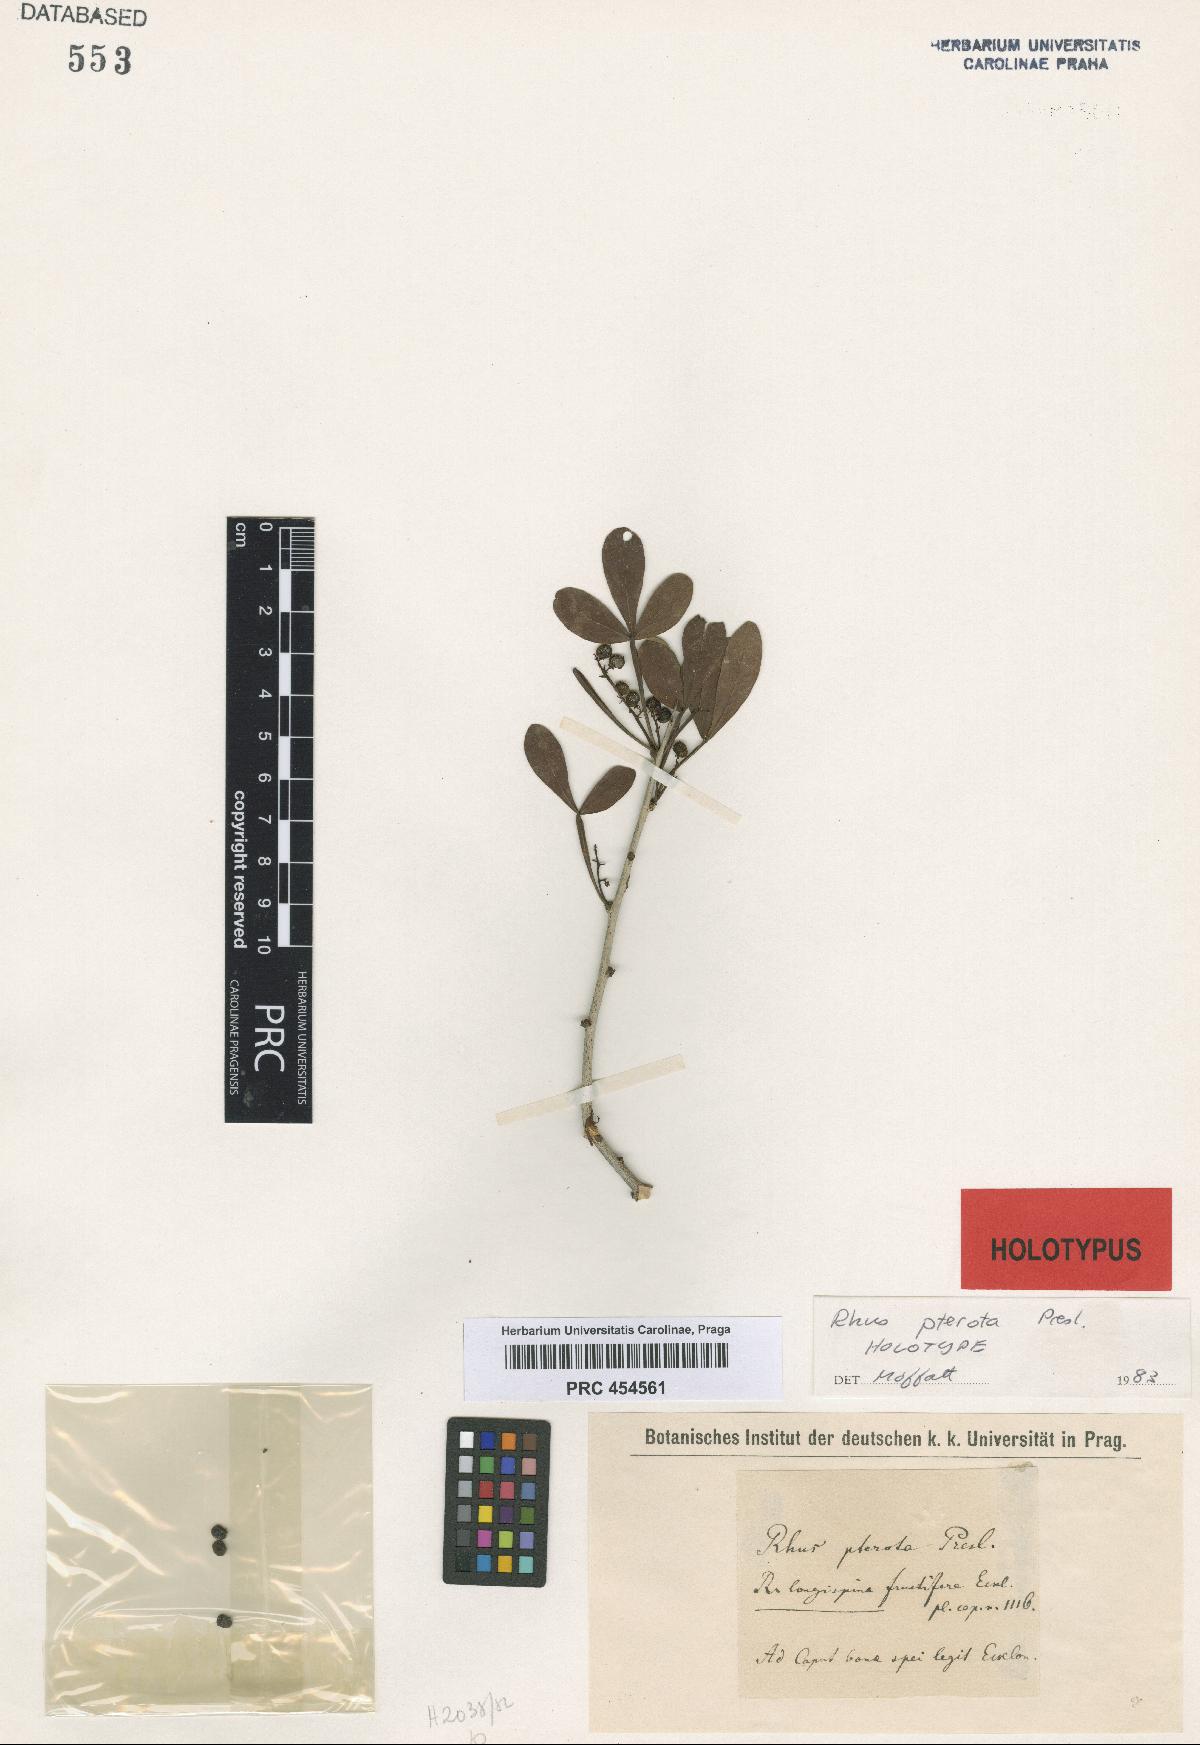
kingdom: Plantae
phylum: Tracheophyta
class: Magnoliopsida
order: Sapindales
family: Anacardiaceae
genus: Searsia
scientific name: Searsia pterota
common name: Winged currant
